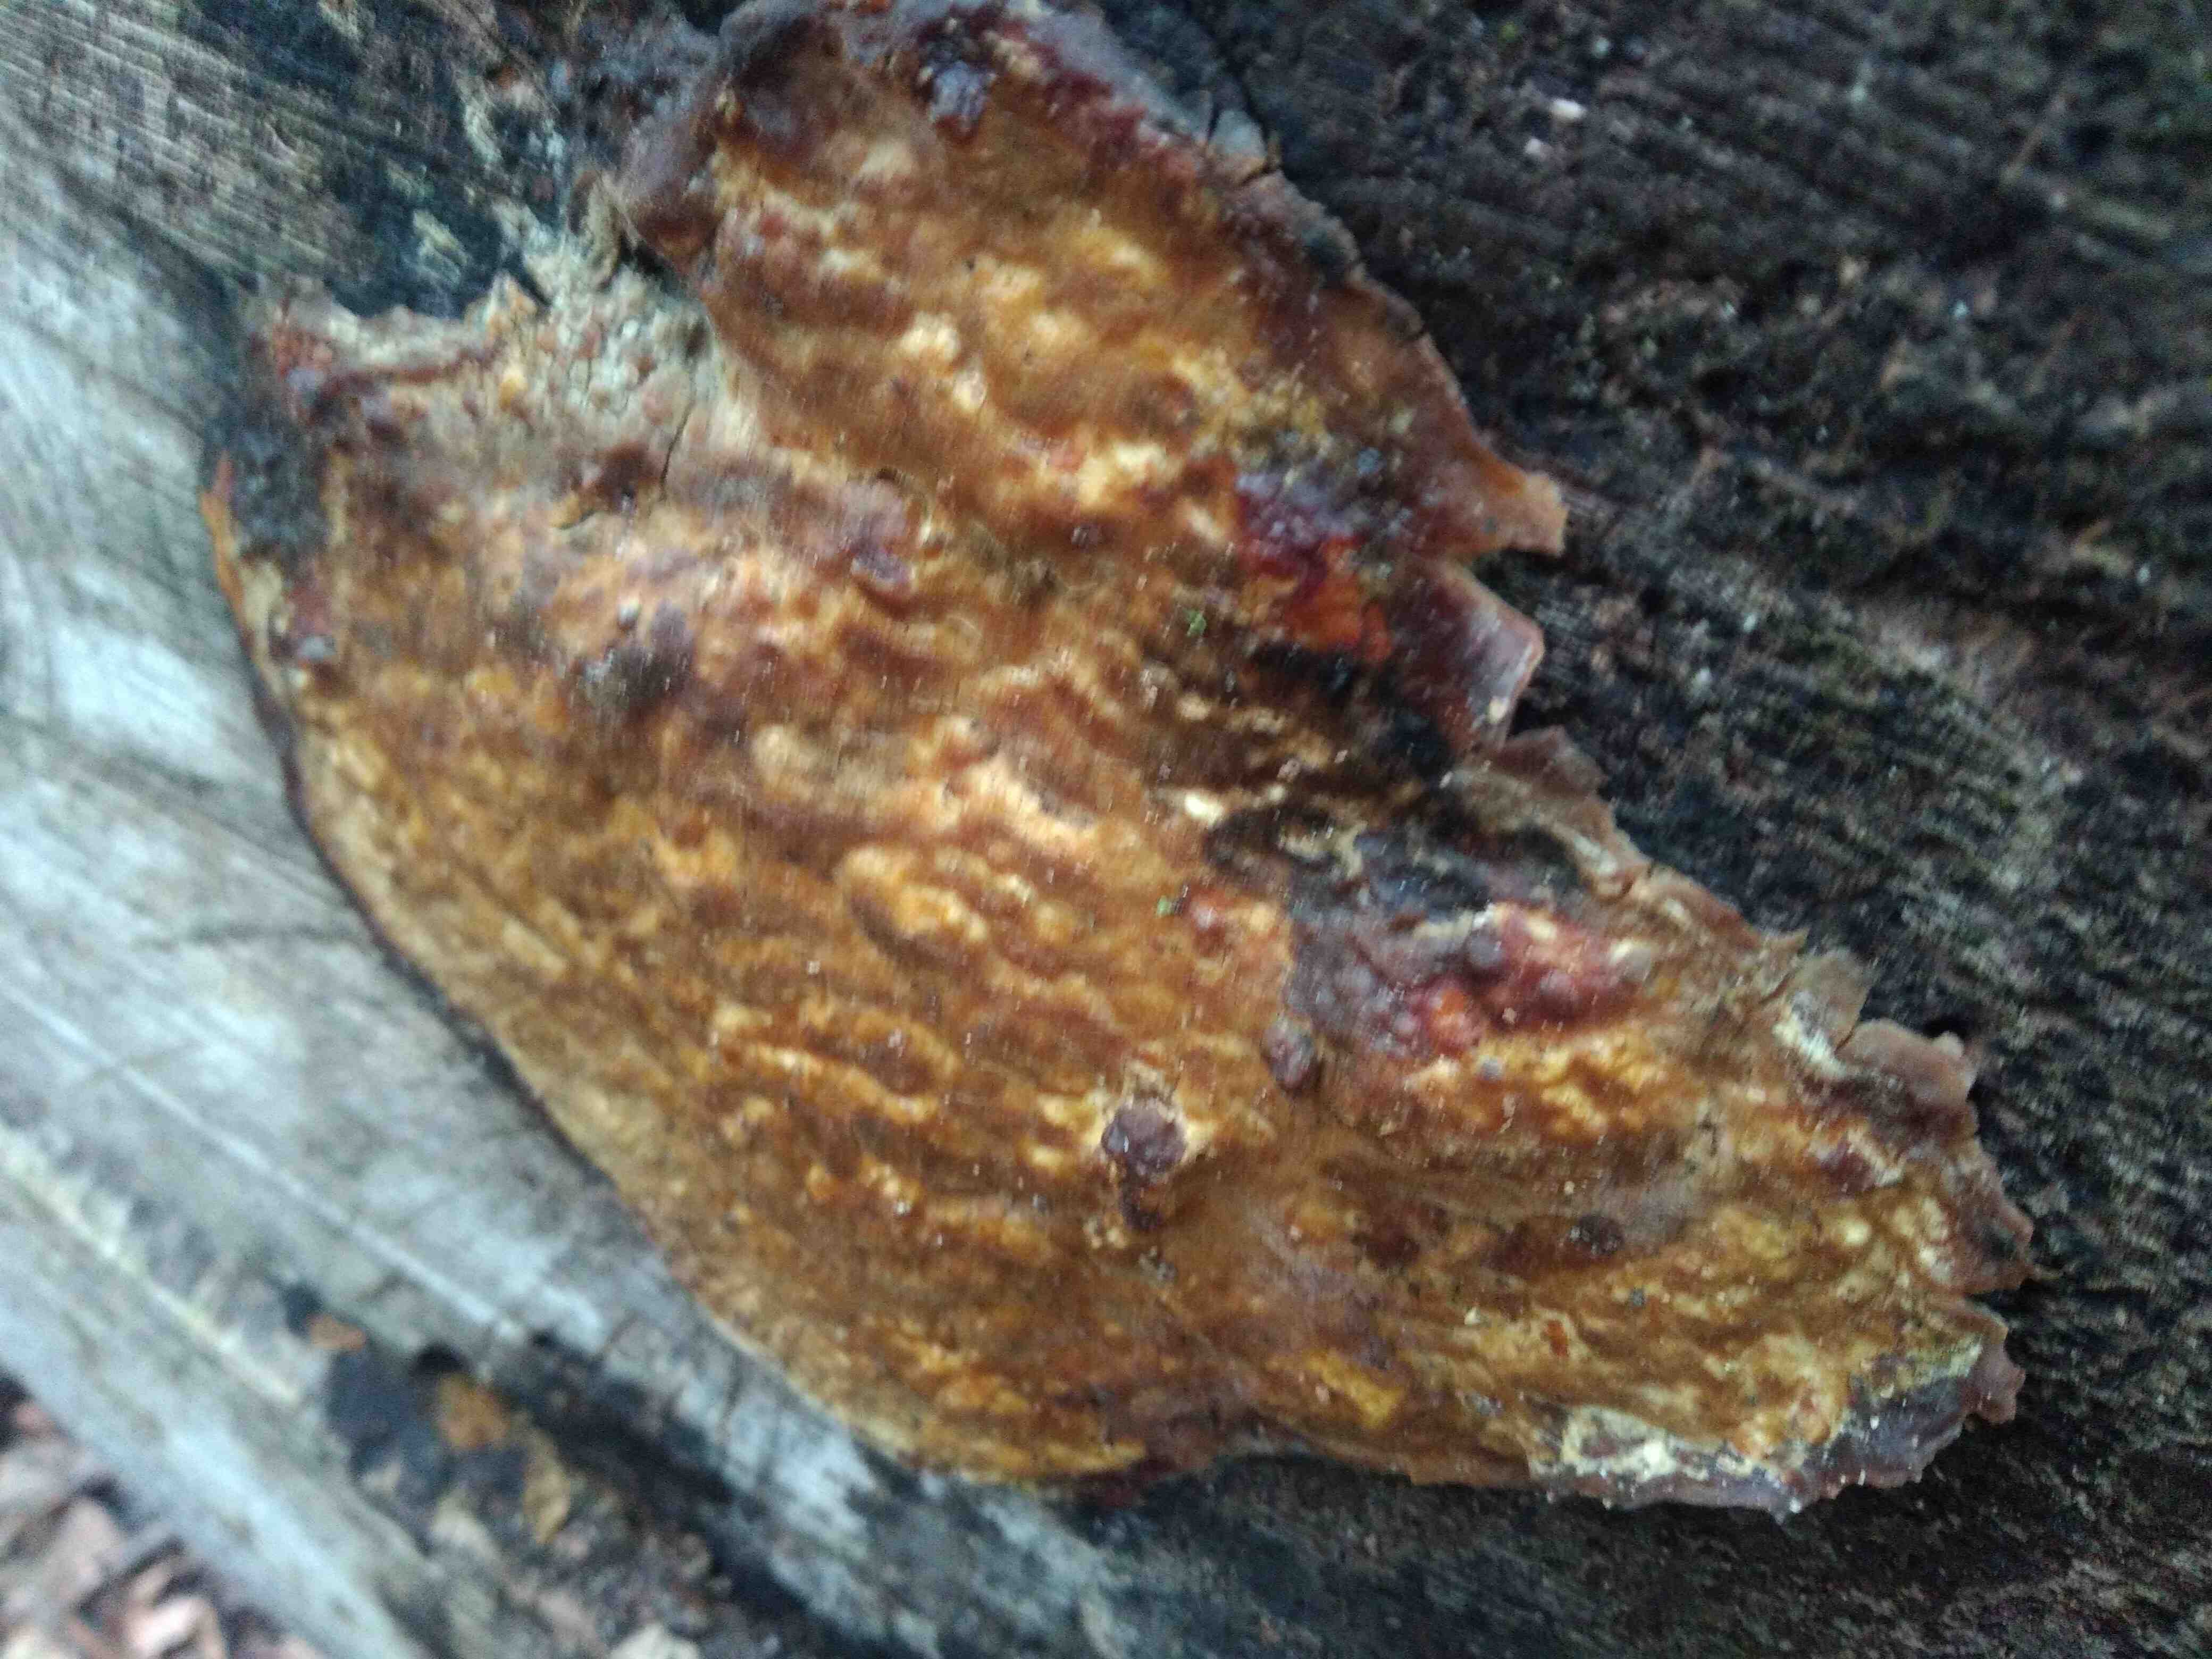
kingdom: Fungi
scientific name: Fungi
